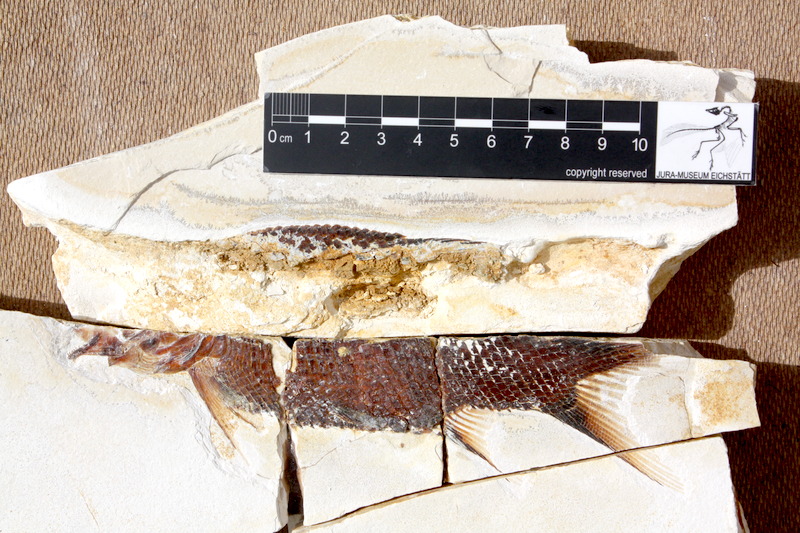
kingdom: Animalia
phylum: Chordata
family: Callipurbeckiidae
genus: Macrosemimimus
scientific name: Macrosemimimus fegerti
